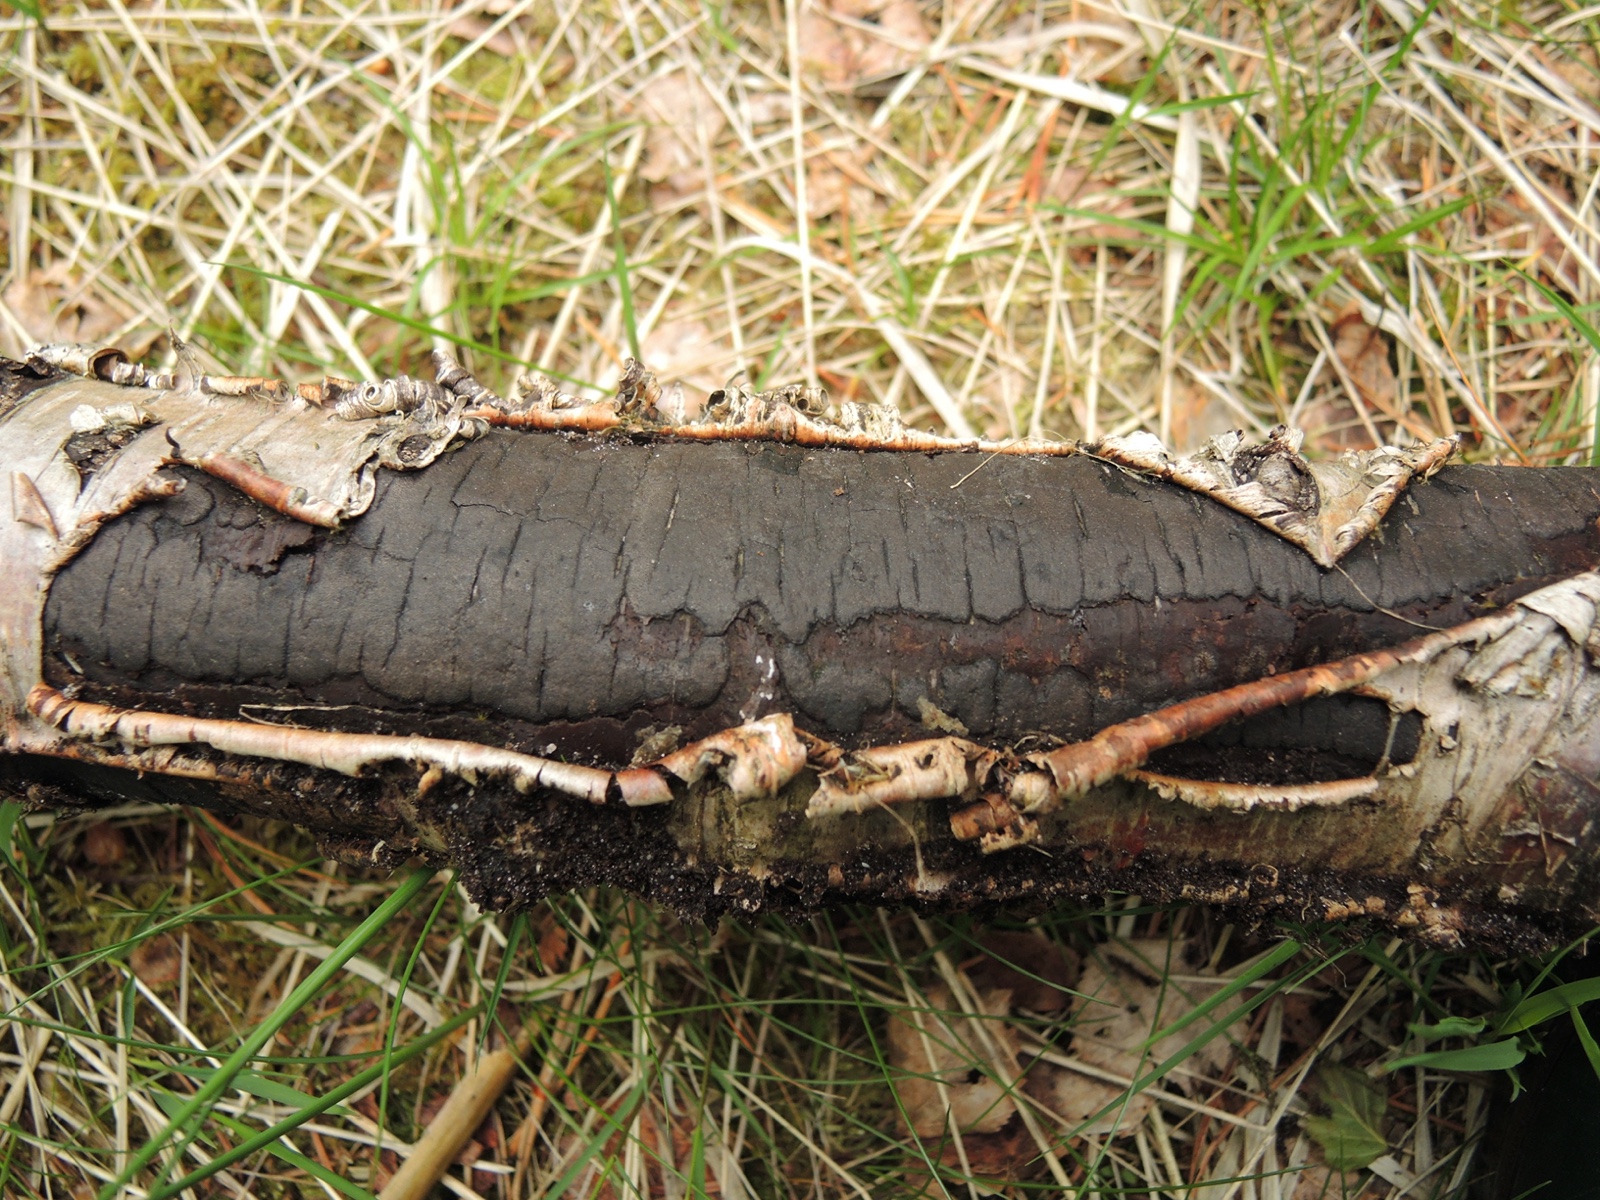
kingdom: Fungi
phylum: Ascomycota
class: Sordariomycetes
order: Xylariales
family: Diatrypaceae
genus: Diatrype
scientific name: Diatrype
